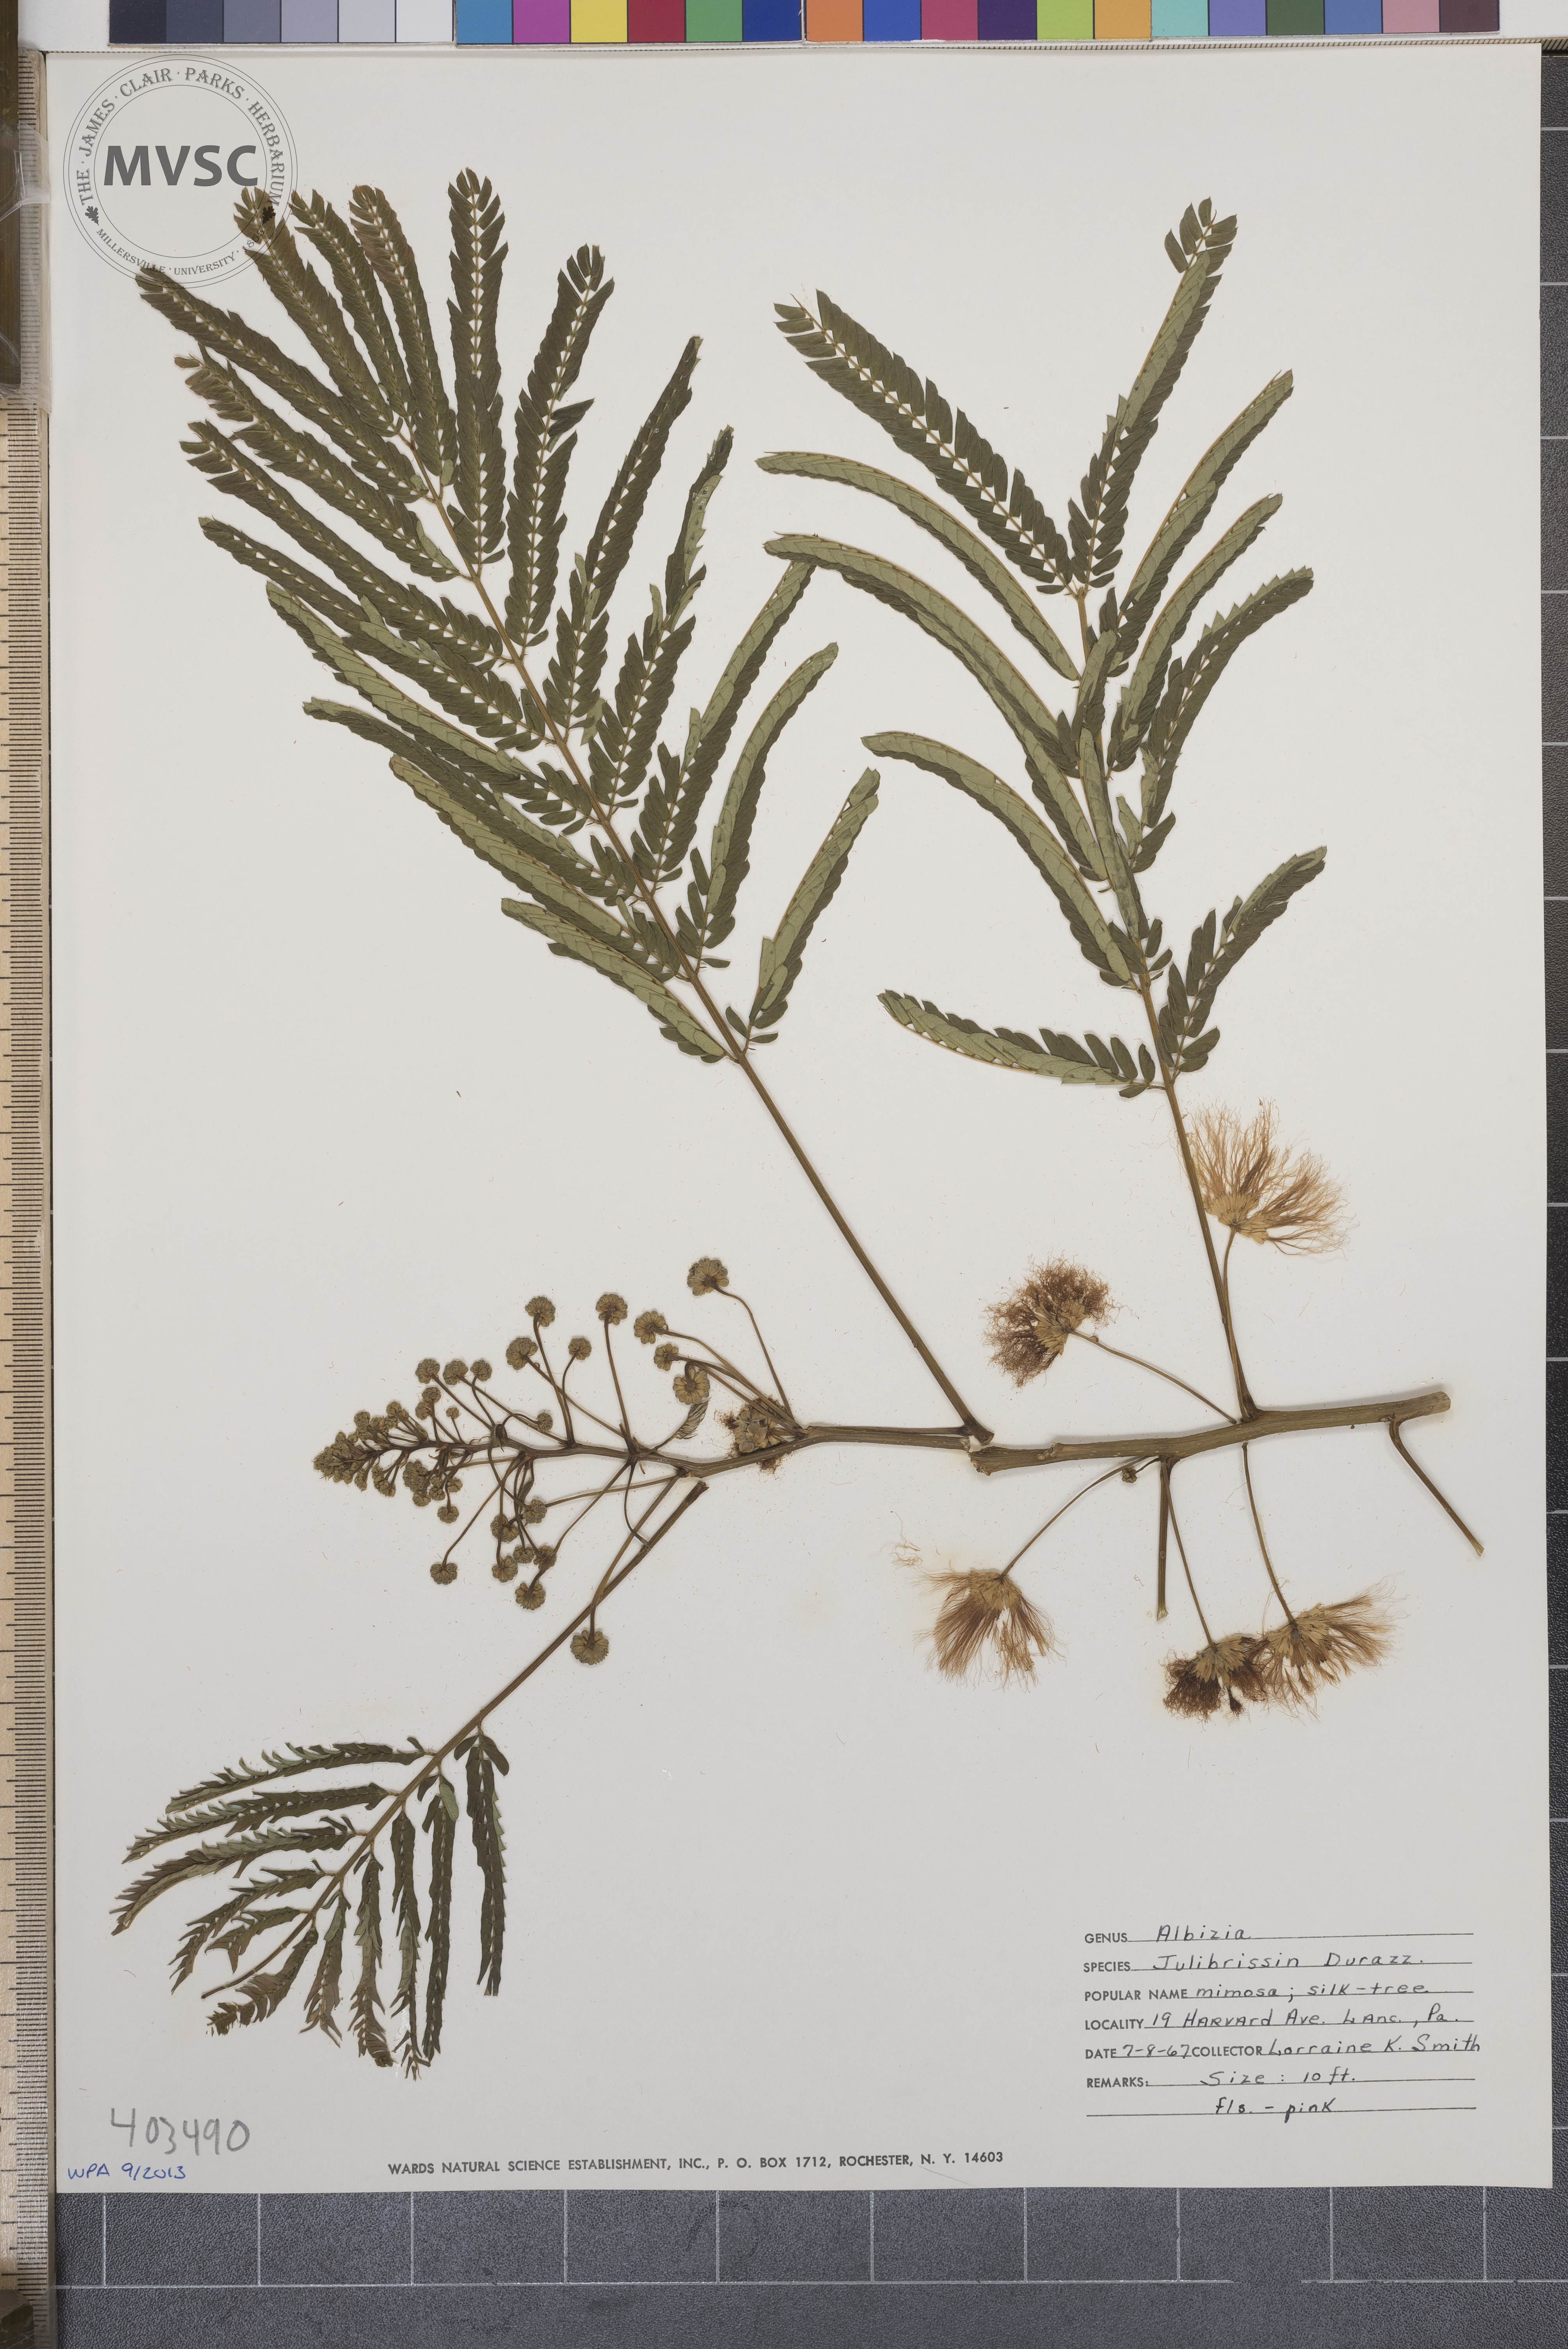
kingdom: Plantae
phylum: Tracheophyta
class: Magnoliopsida
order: Fabales
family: Fabaceae
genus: Albizia
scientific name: Albizia julibrissin
